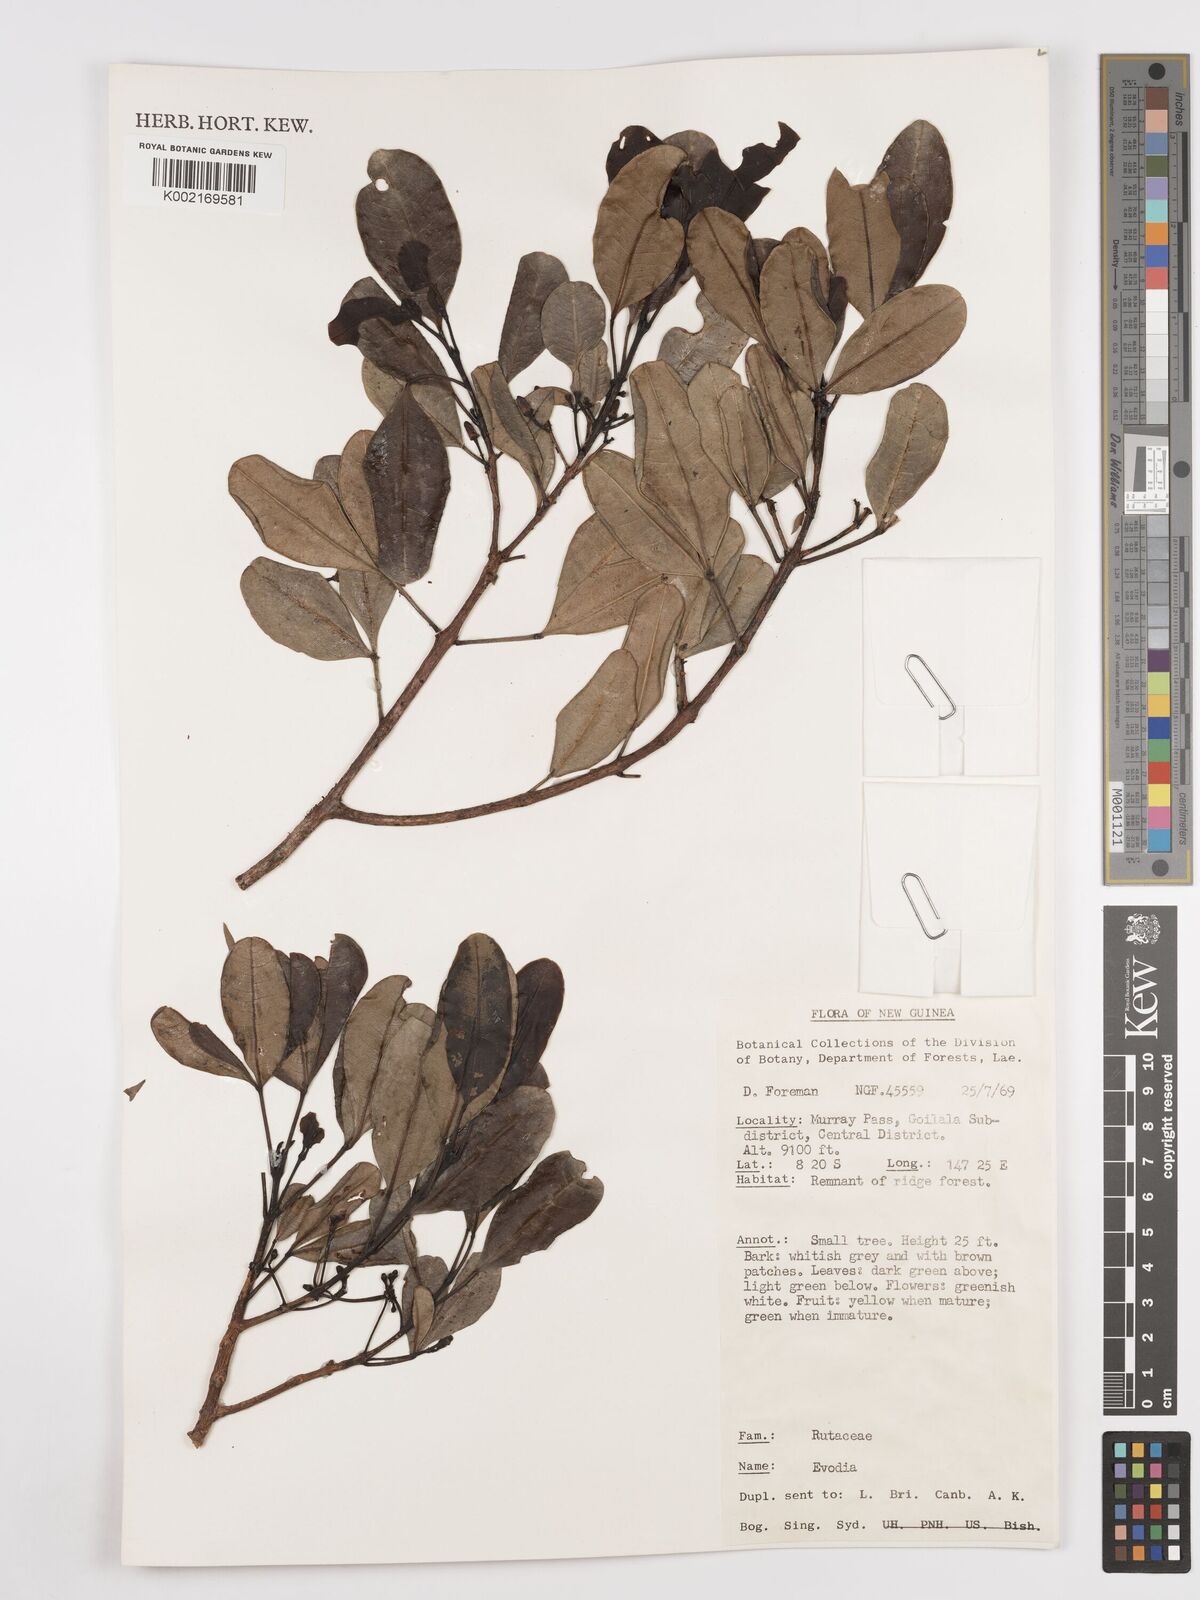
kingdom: Plantae
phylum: Tracheophyta
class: Magnoliopsida
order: Sapindales
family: Rutaceae
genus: Euodia
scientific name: Euodia
